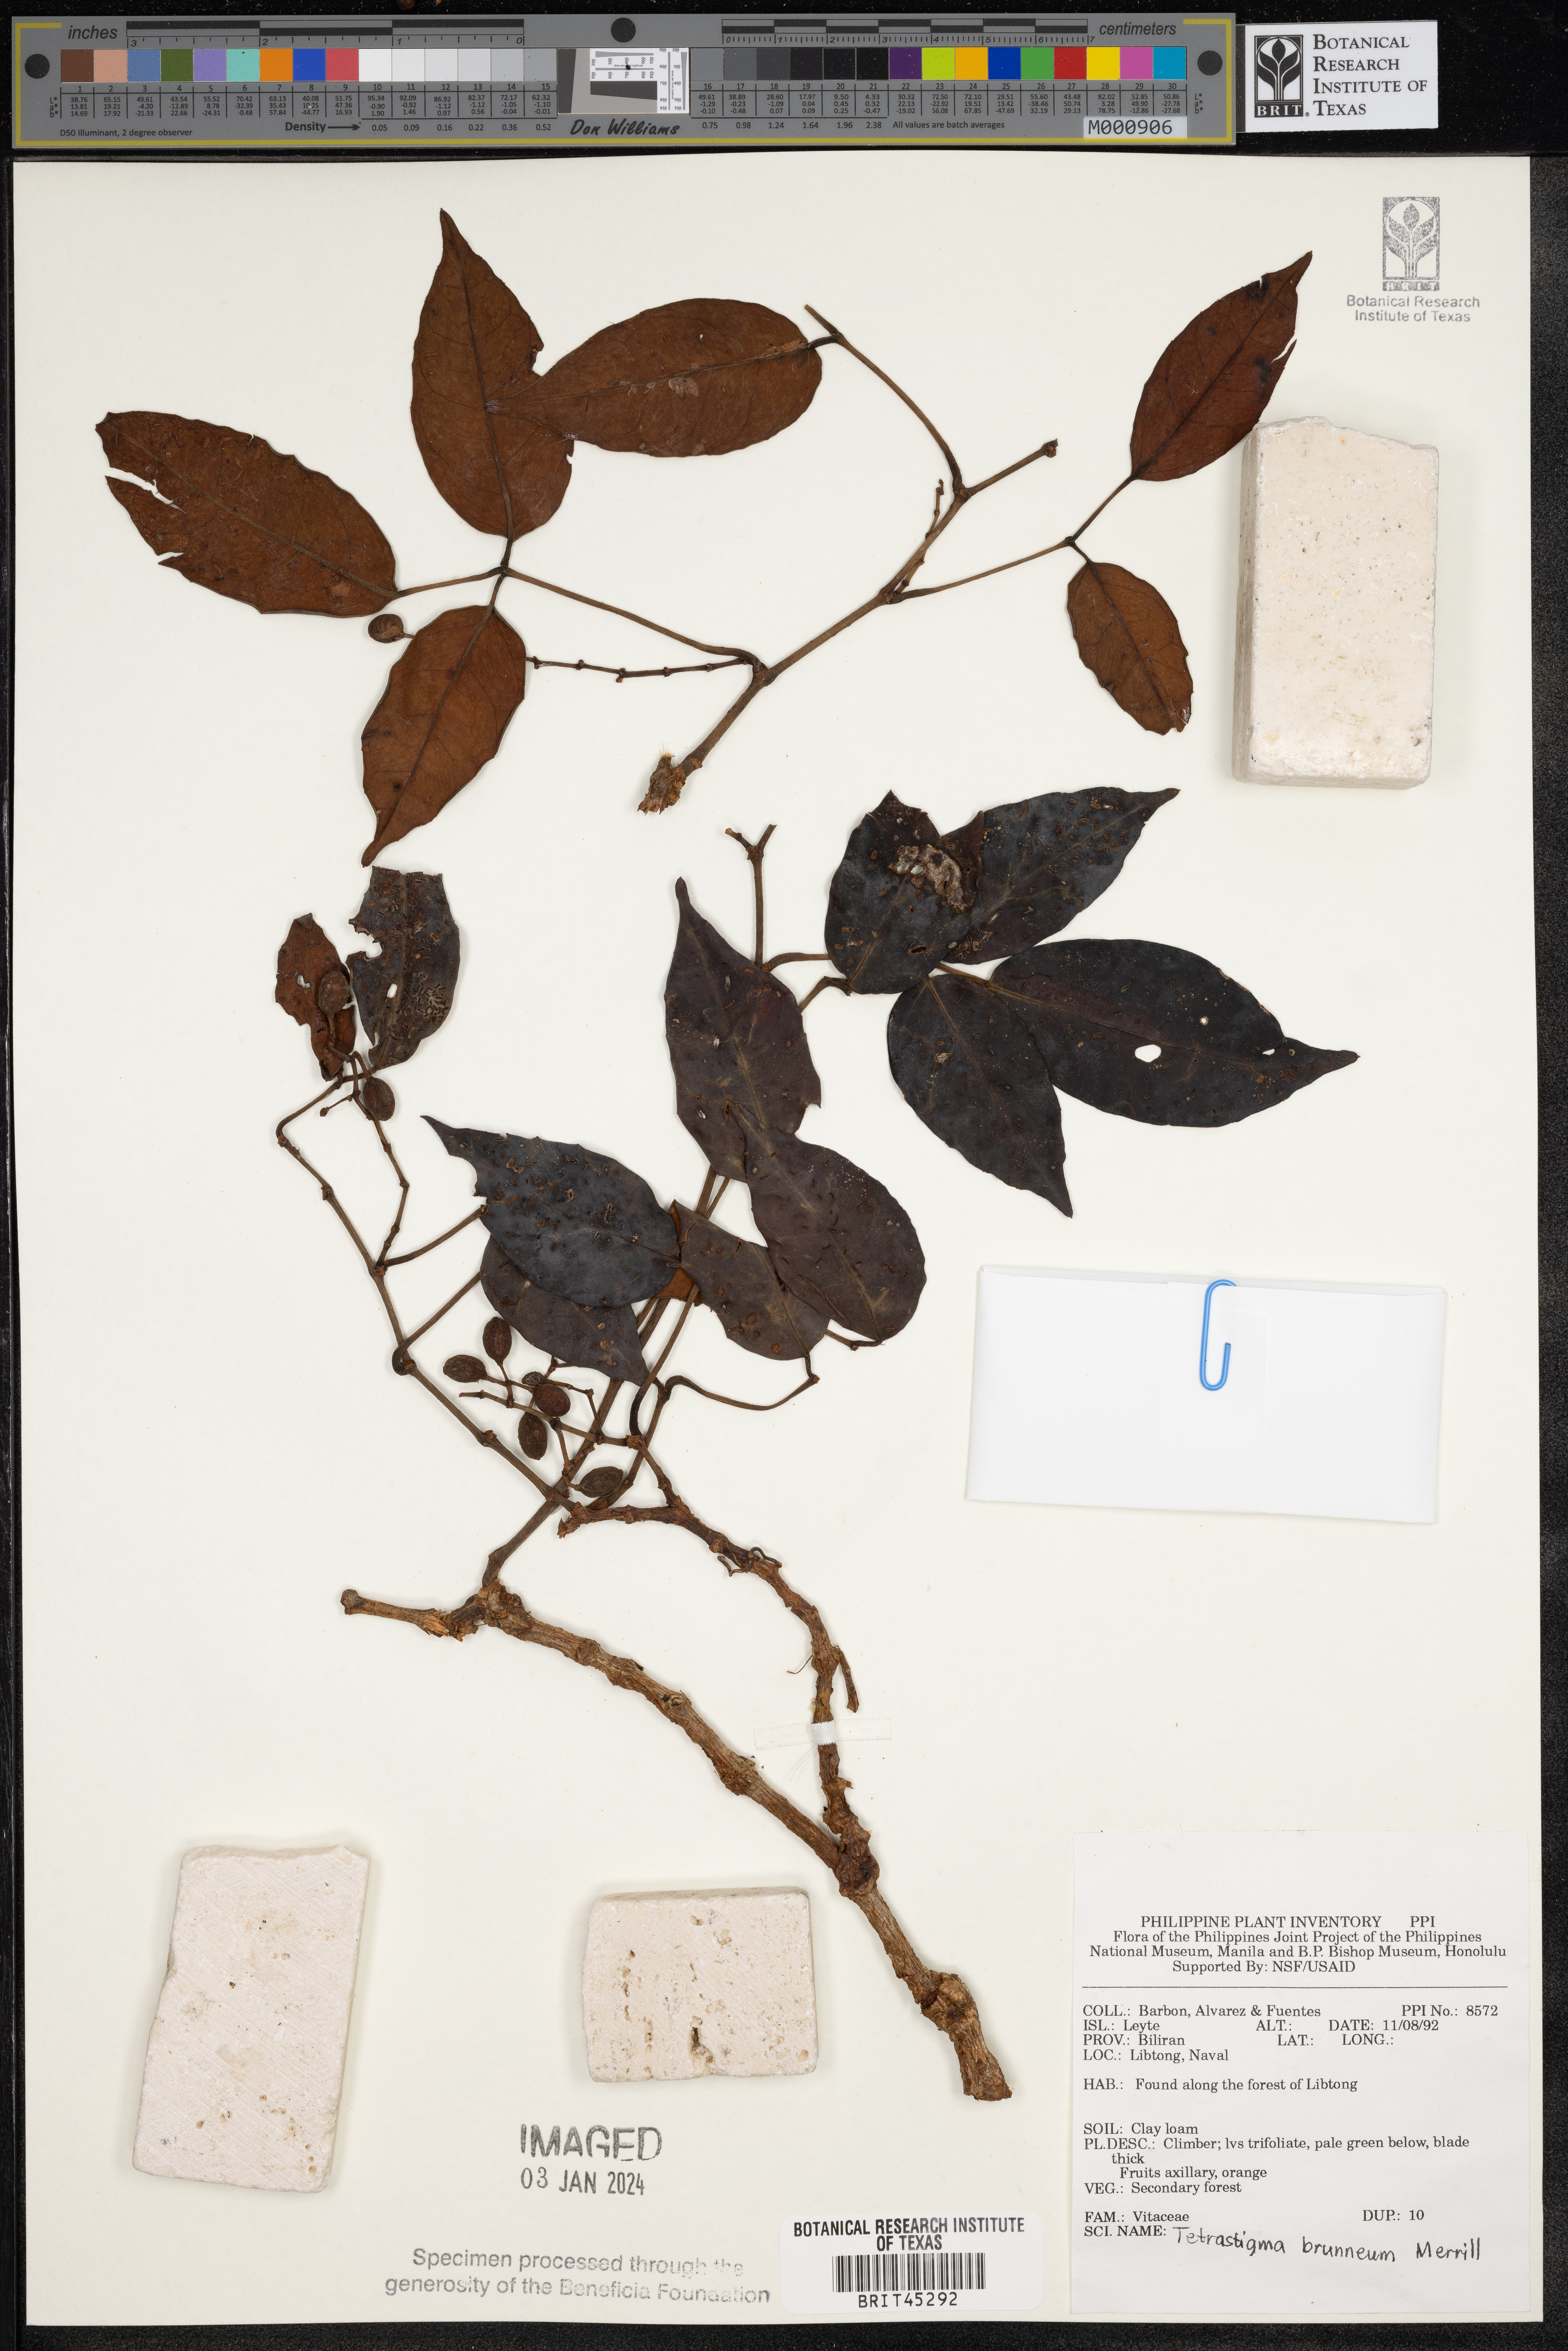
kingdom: Plantae
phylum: Tracheophyta
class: Magnoliopsida
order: Vitales
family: Vitaceae
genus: Tetrastigma
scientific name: Tetrastigma brunneum
